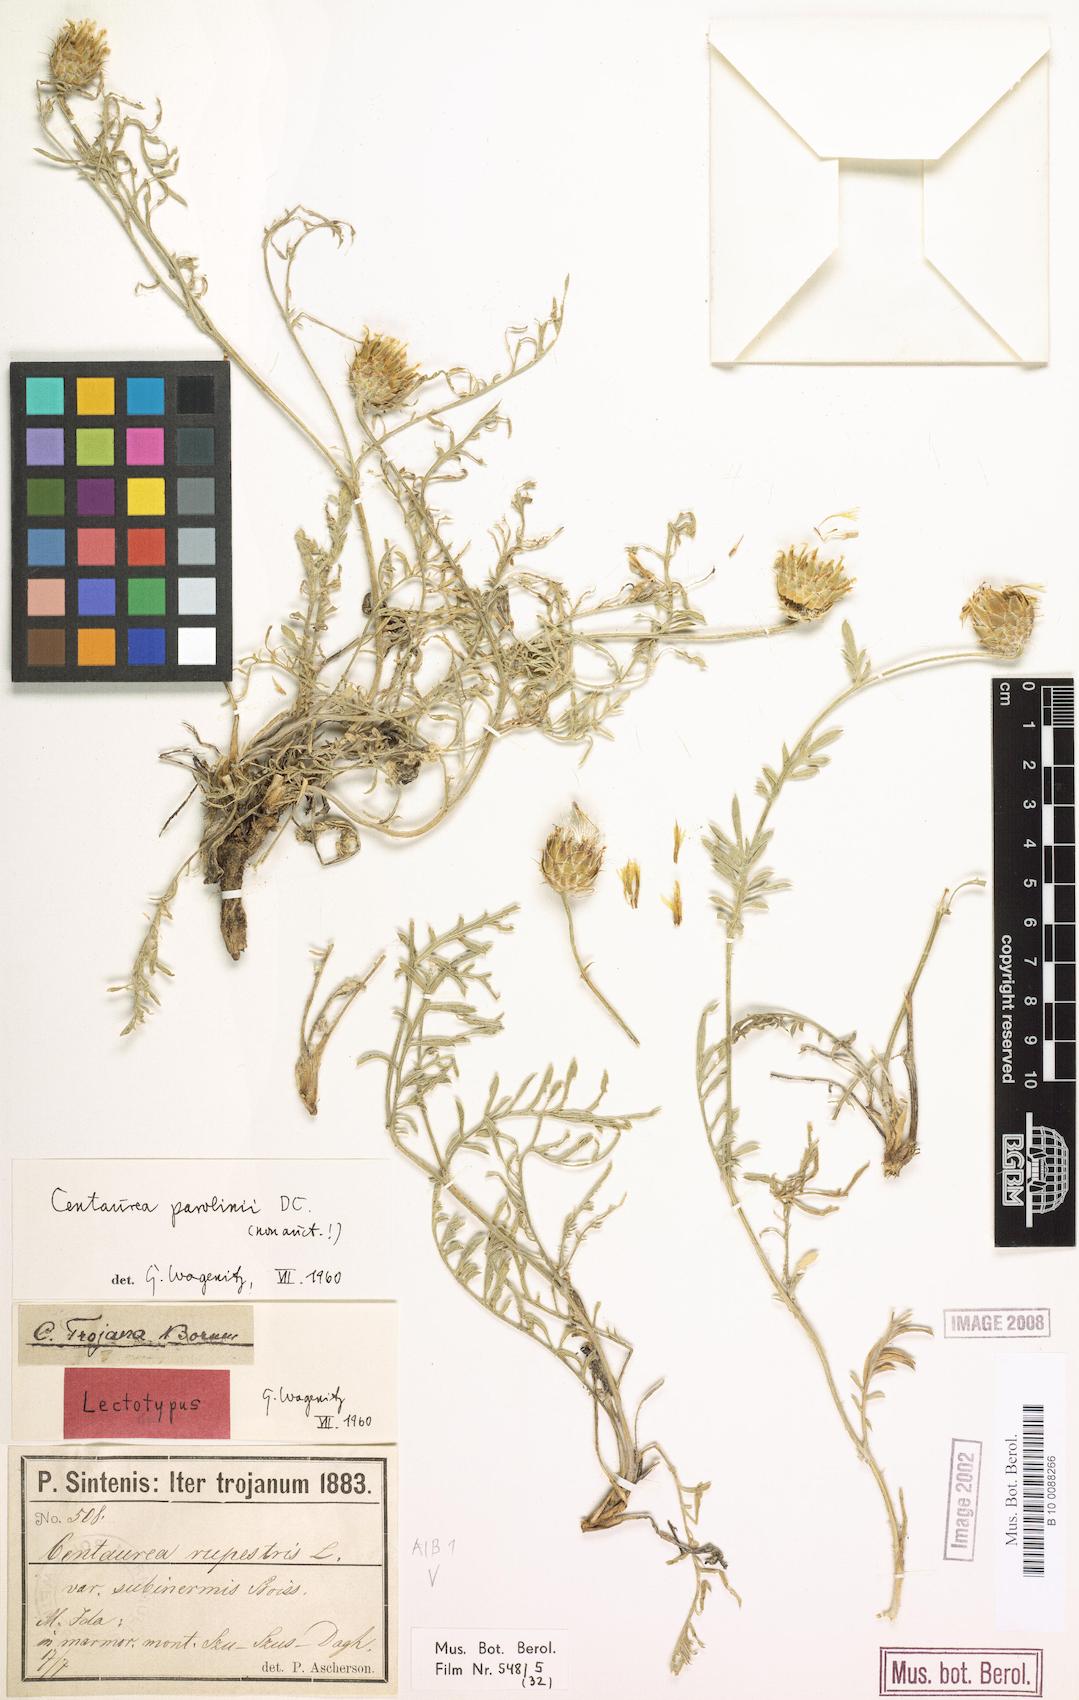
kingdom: Plantae
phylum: Tracheophyta
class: Magnoliopsida
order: Asterales
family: Asteraceae
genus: Centaurea
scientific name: Centaurea athoa
